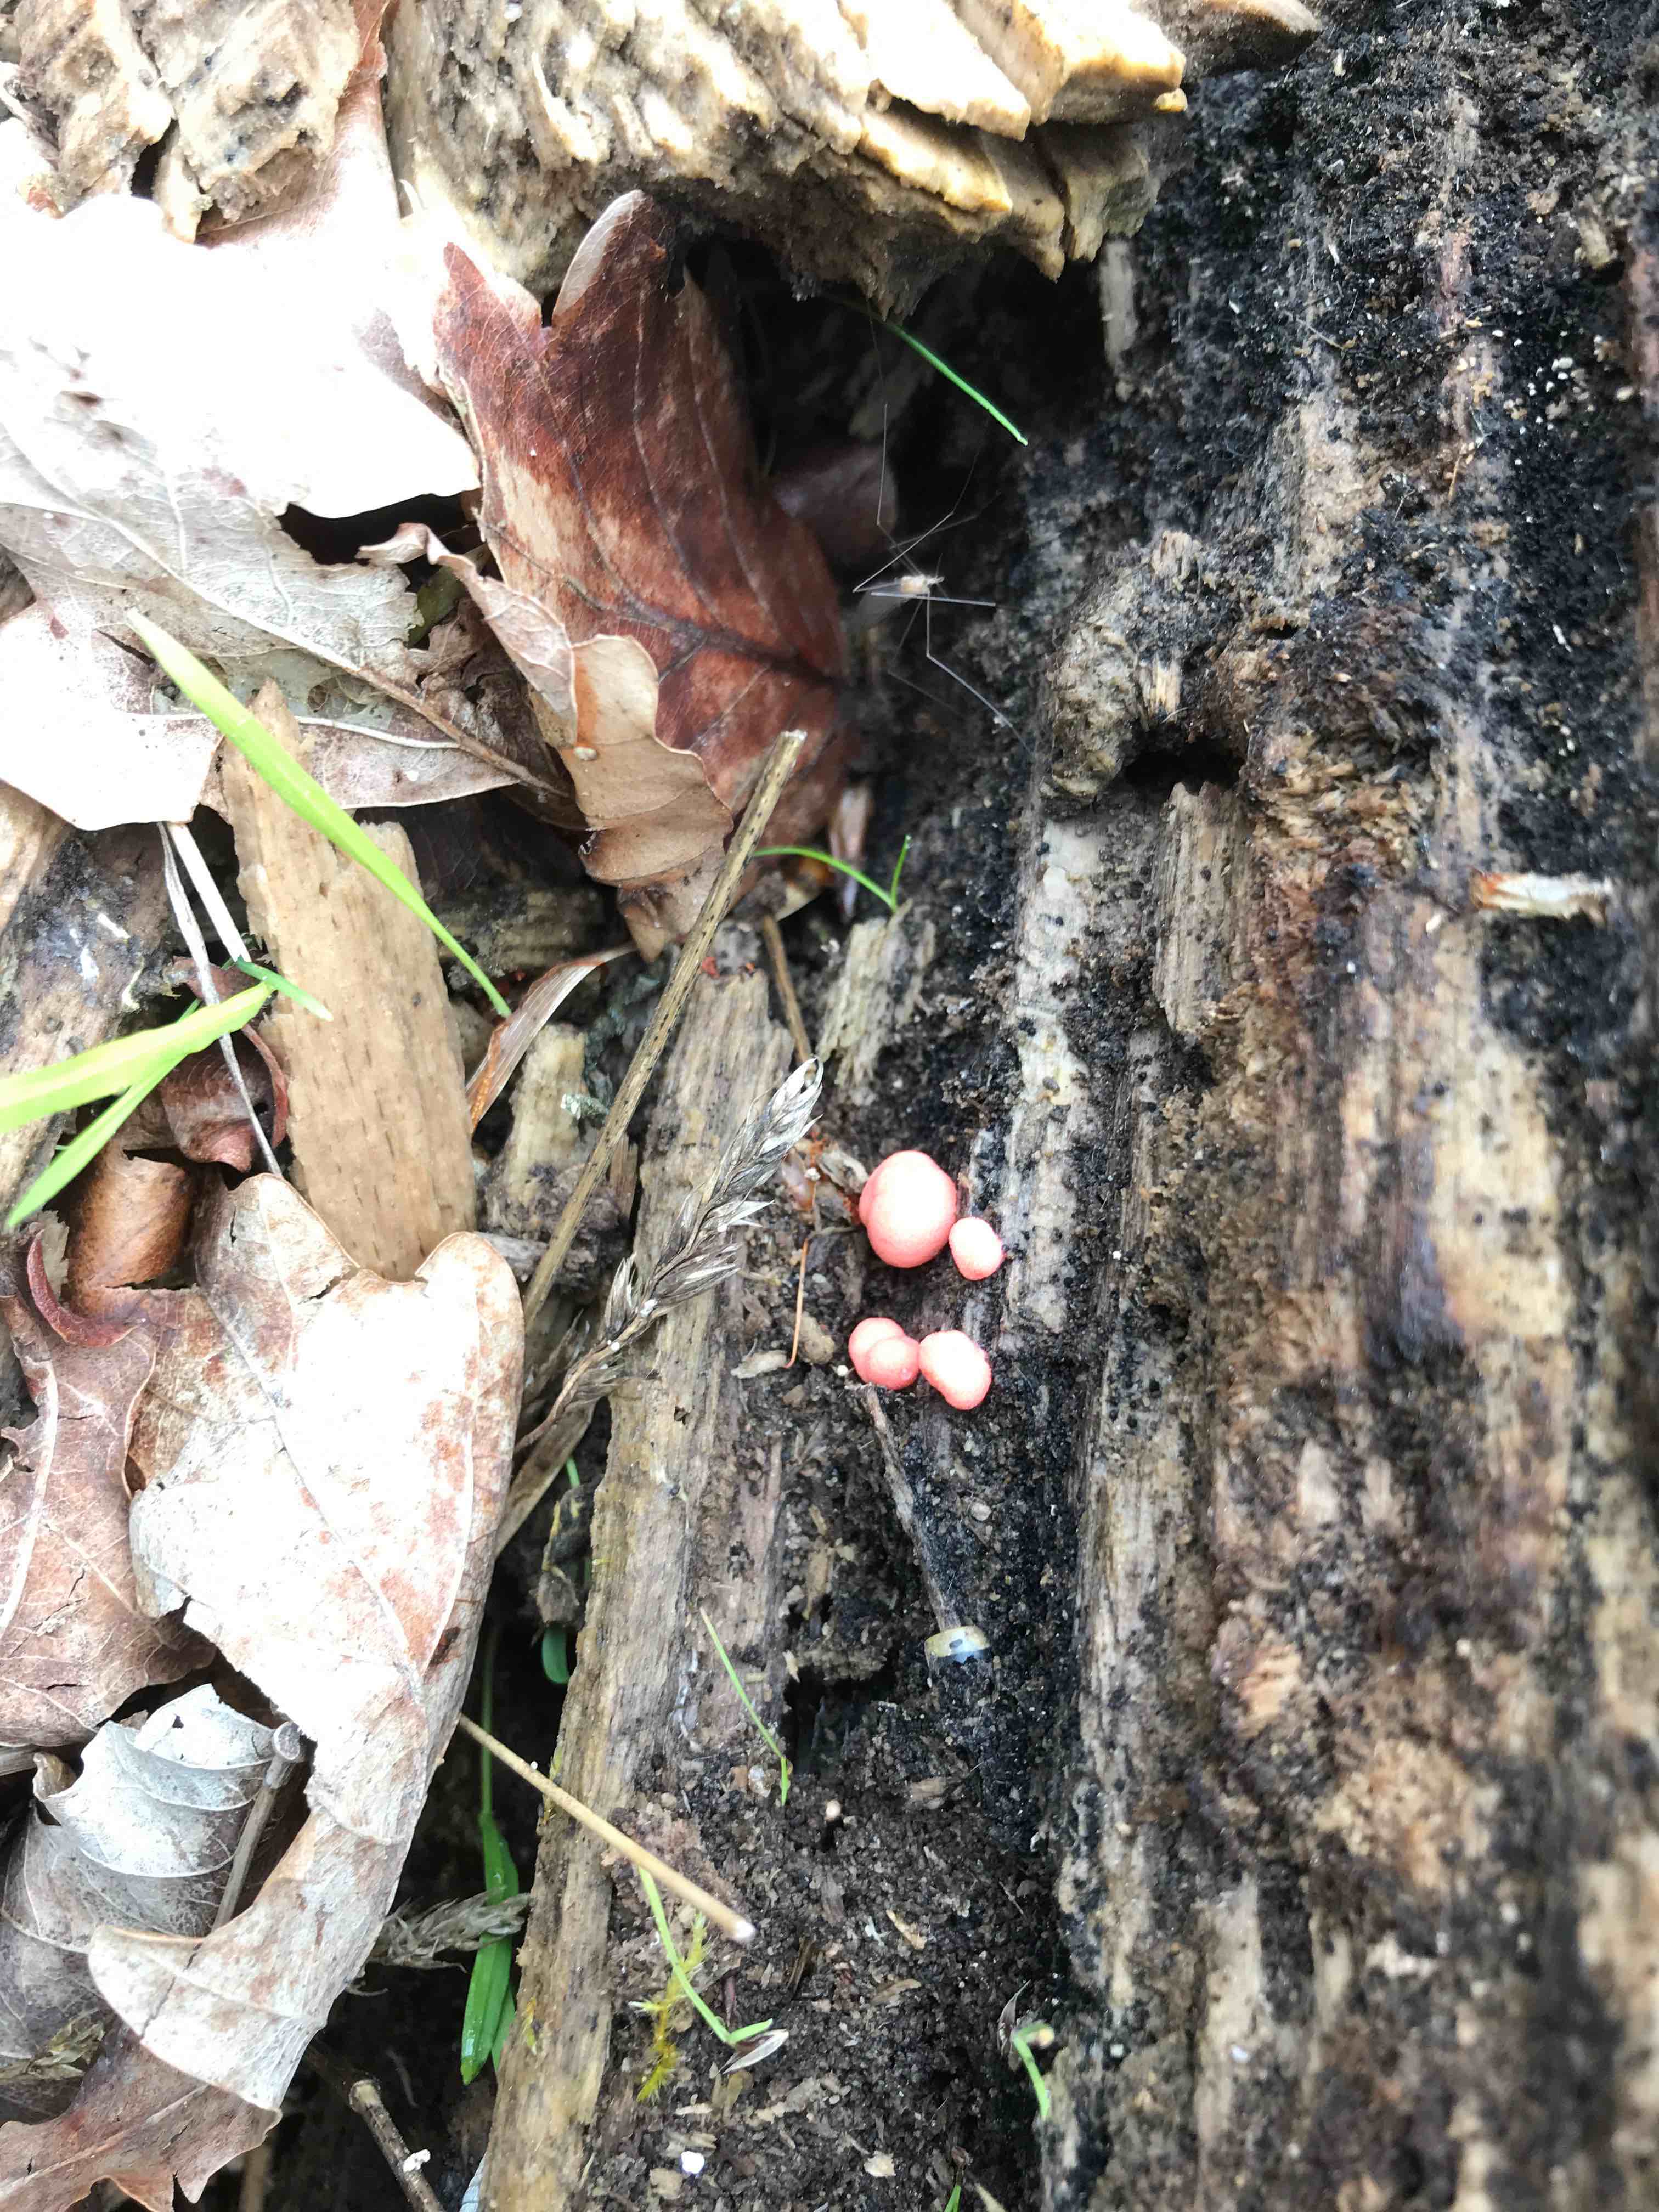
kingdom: Protozoa
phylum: Mycetozoa
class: Myxomycetes
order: Cribrariales
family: Tubiferaceae
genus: Lycogala
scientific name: Lycogala epidendrum
